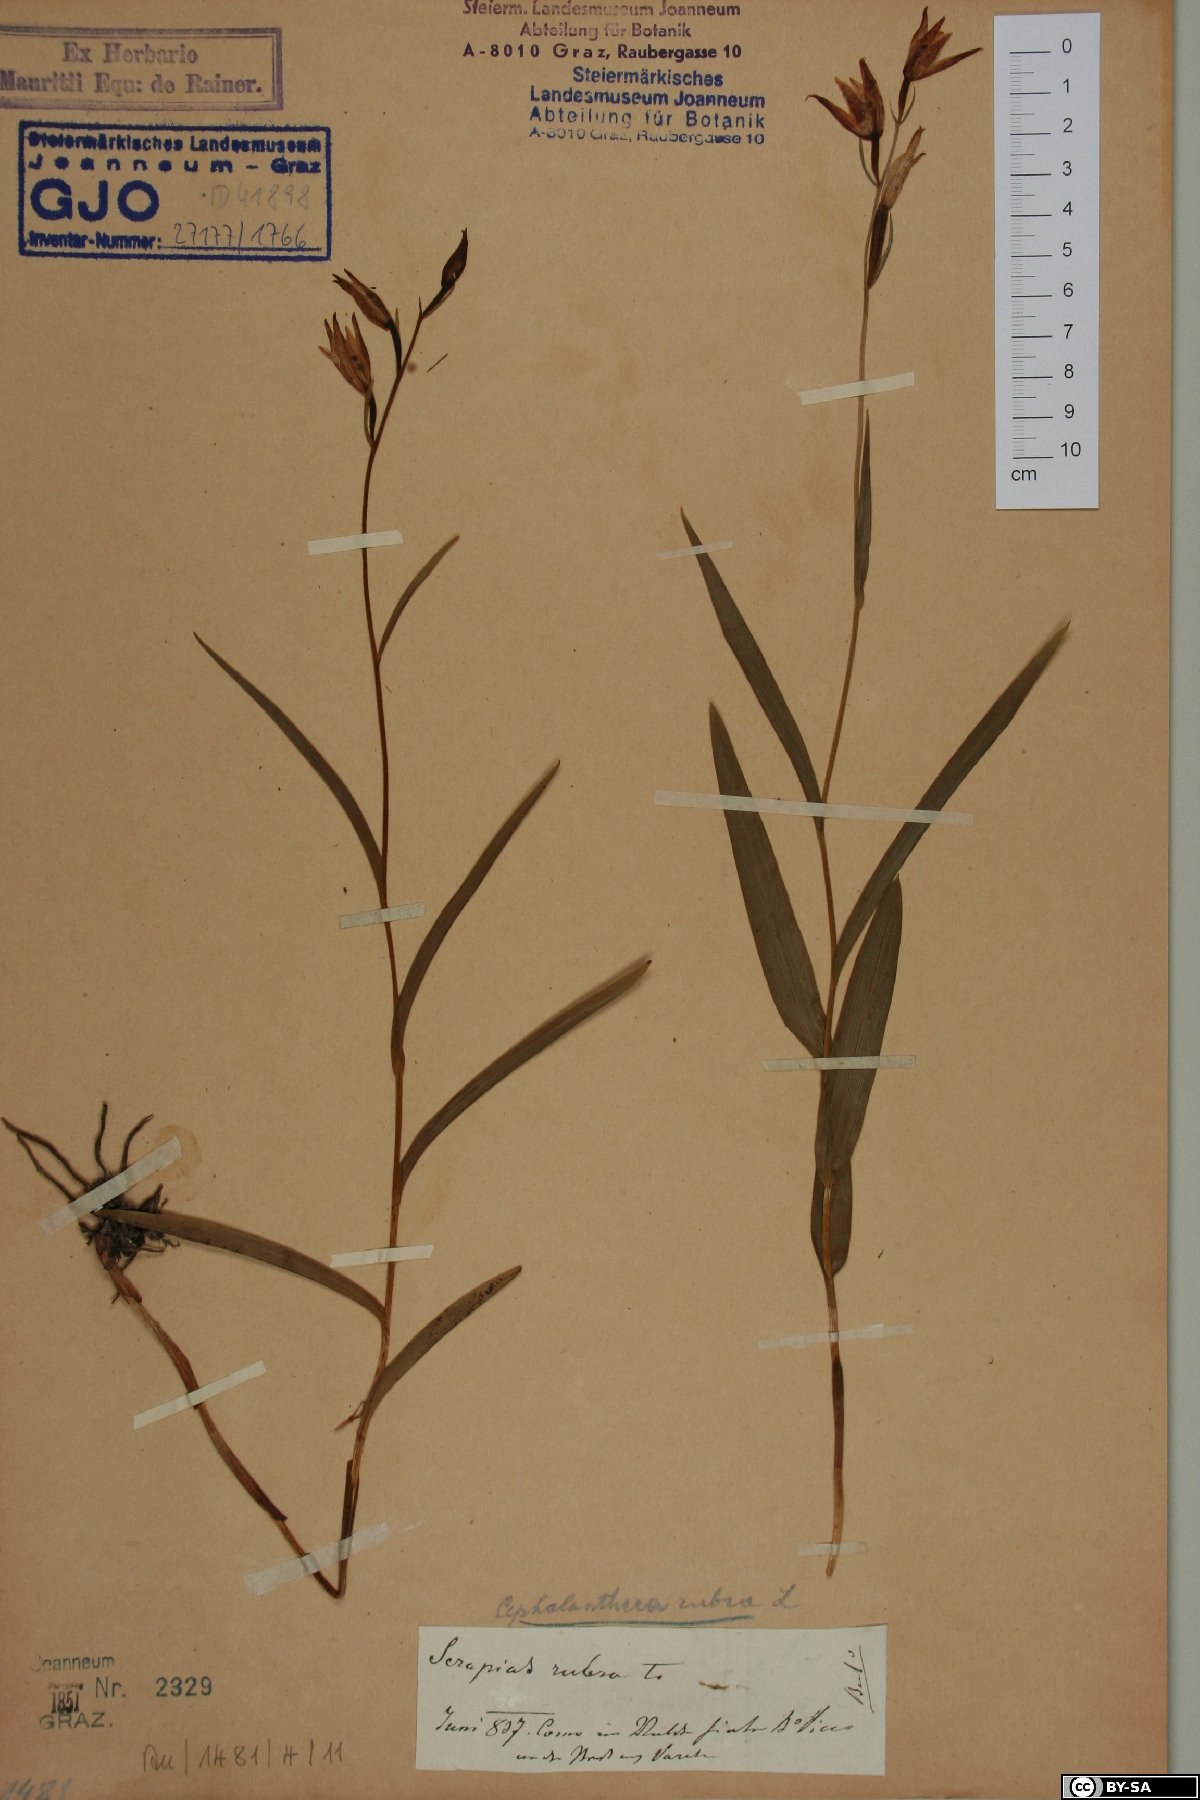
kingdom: Plantae
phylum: Tracheophyta
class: Liliopsida
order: Asparagales
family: Orchidaceae
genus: Cephalanthera
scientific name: Cephalanthera rubra
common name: Red helleborine
